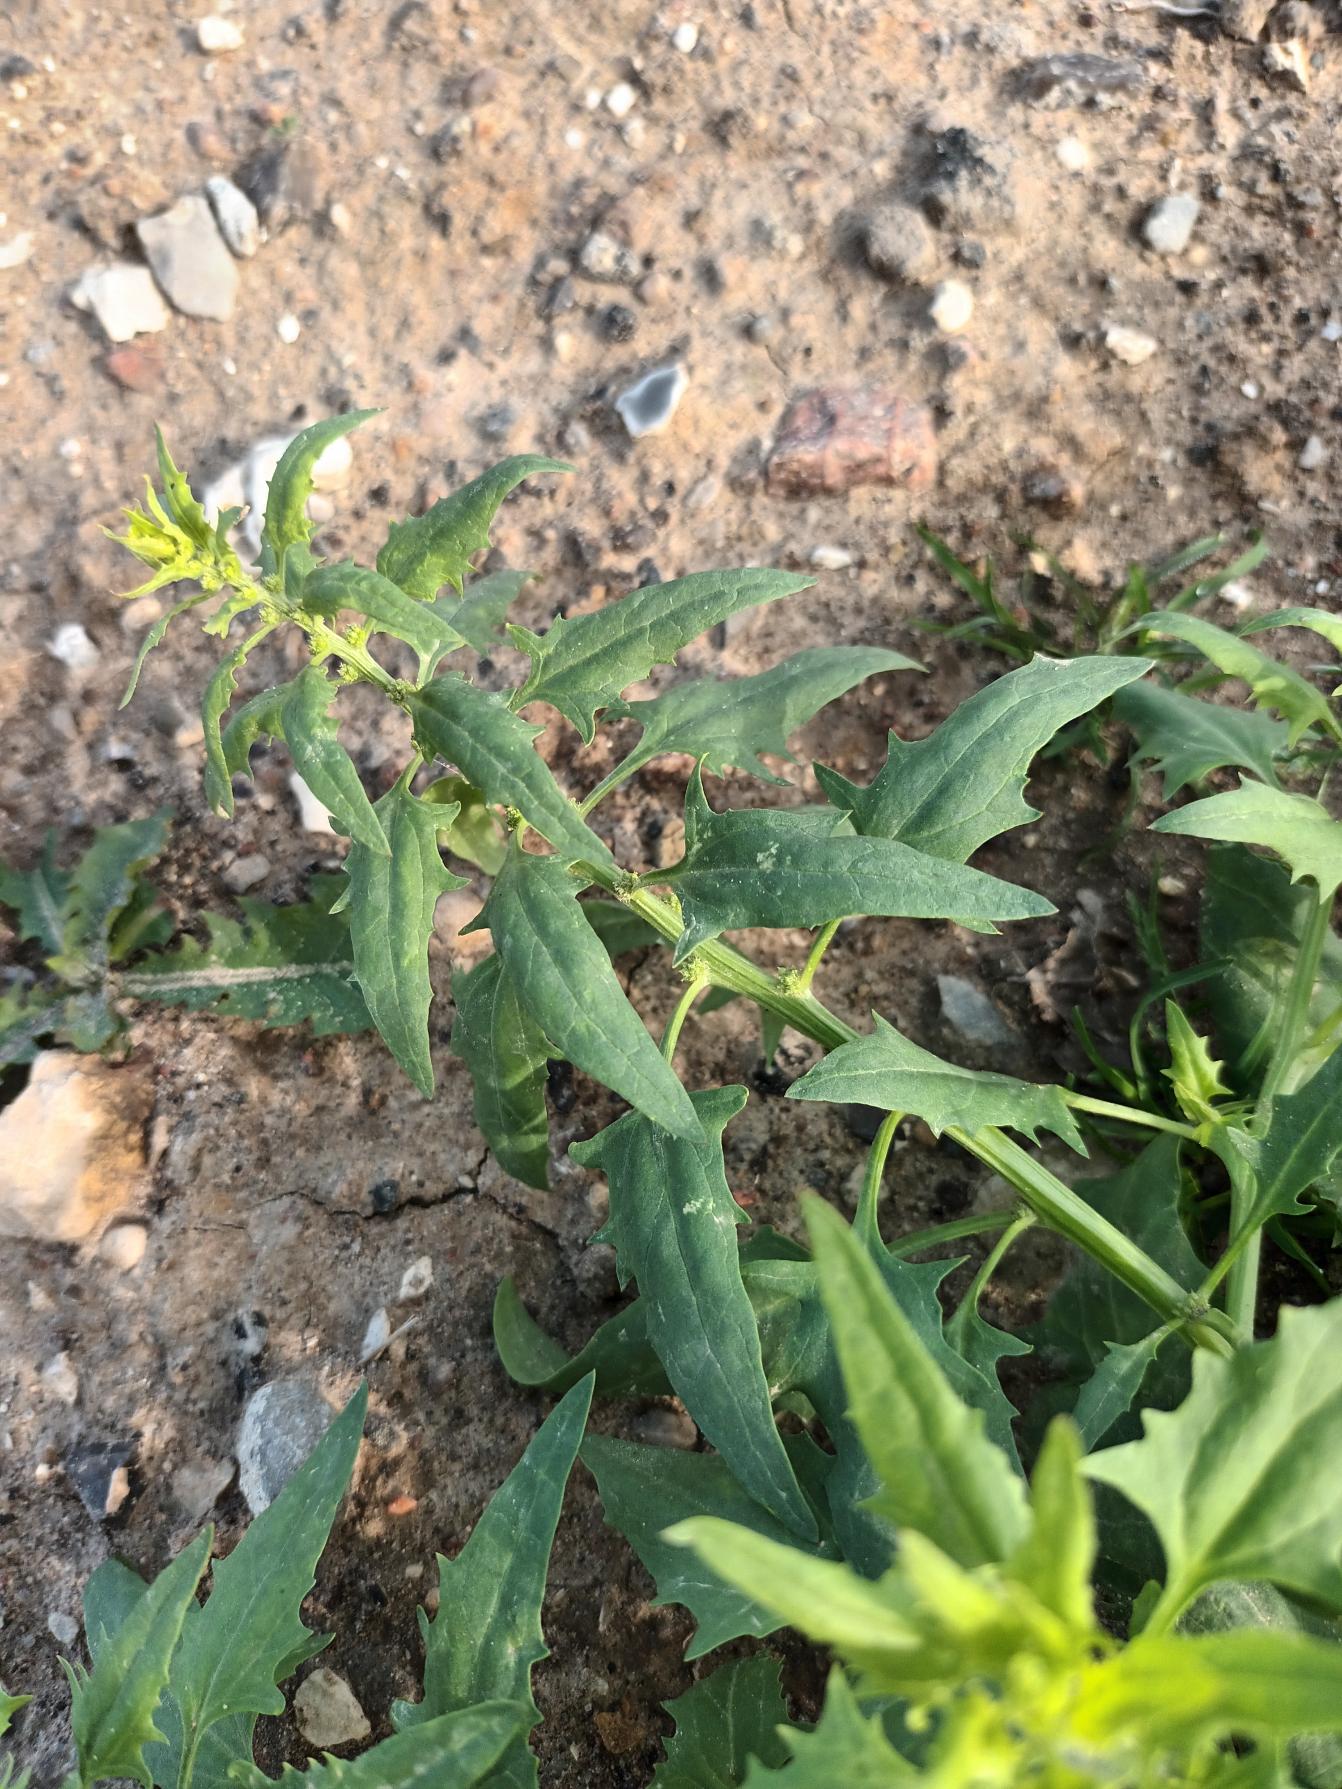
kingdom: Plantae
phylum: Tracheophyta
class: Magnoliopsida
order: Caryophyllales
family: Amaranthaceae
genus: Blitum
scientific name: Blitum virgatum
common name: Aks-jordbærspinat
